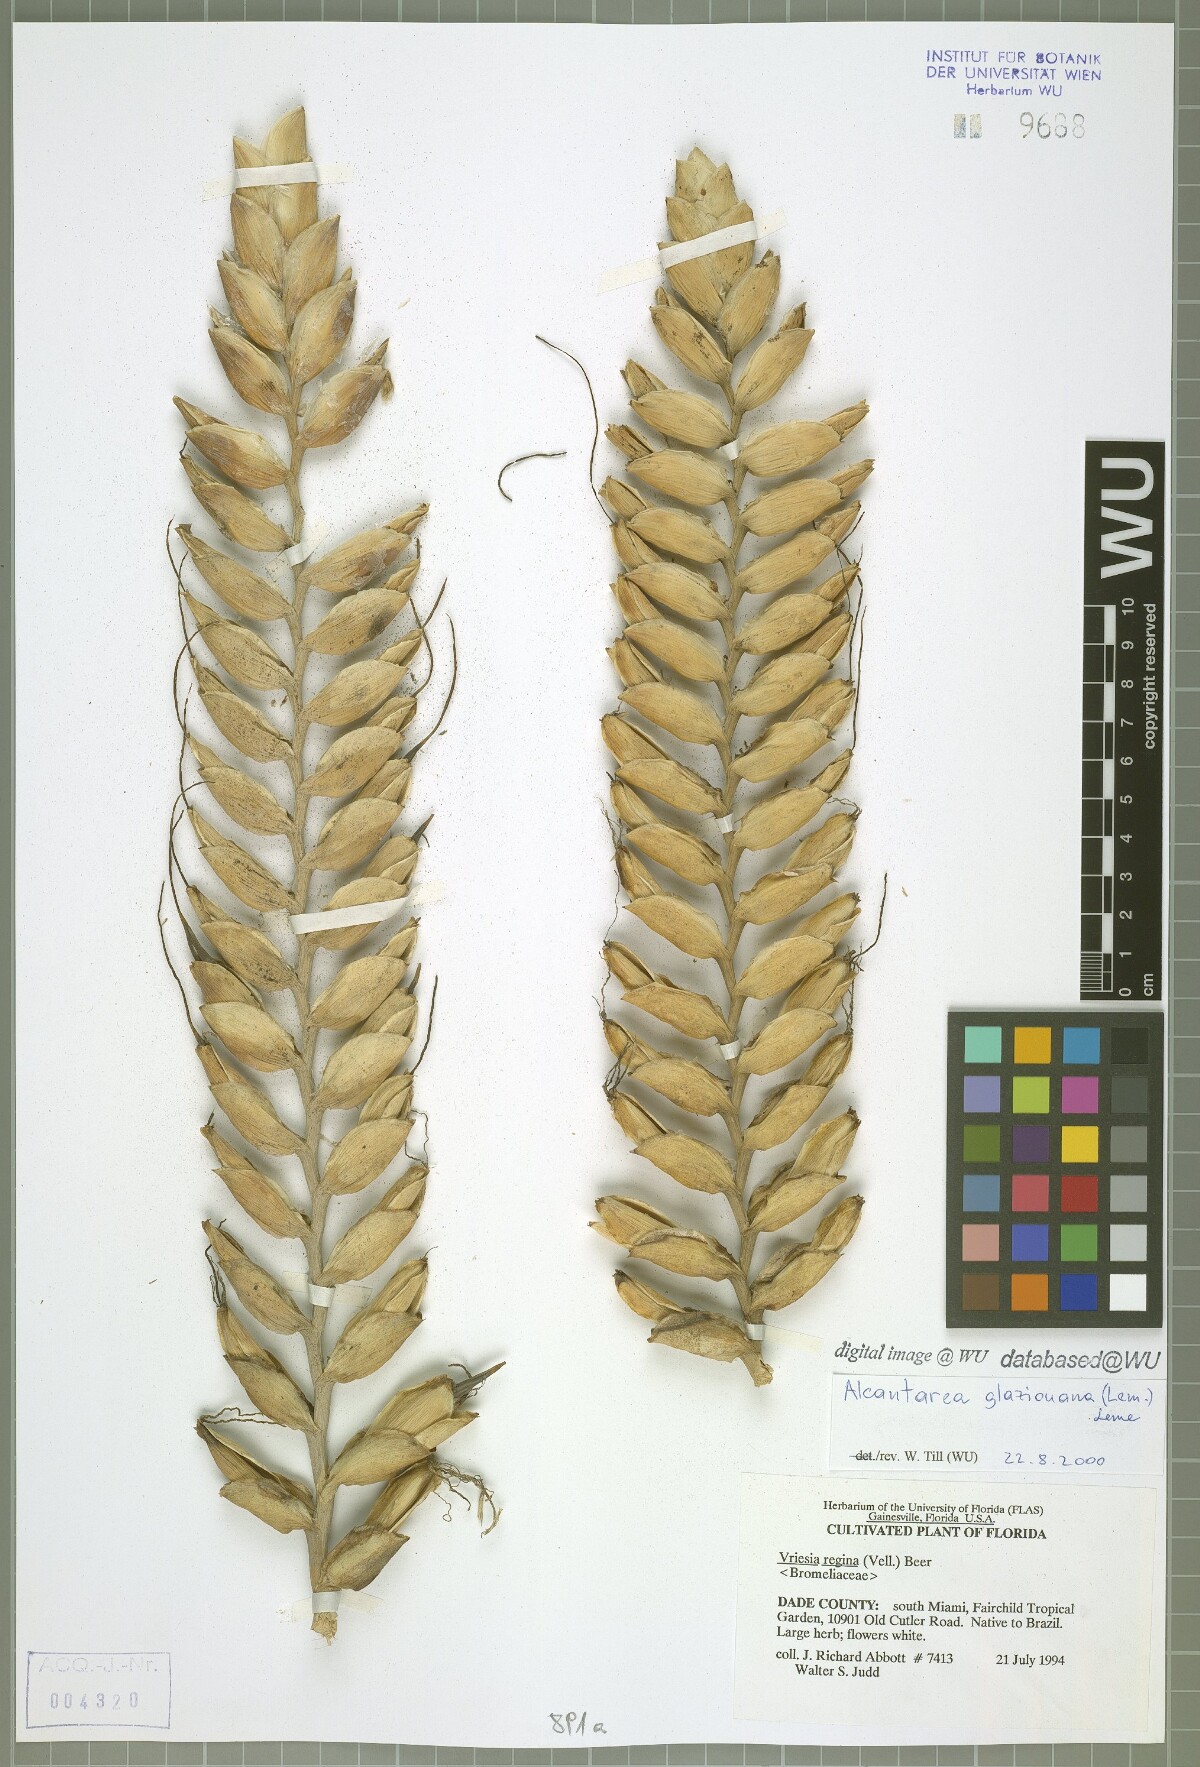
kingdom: Plantae
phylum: Tracheophyta
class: Liliopsida
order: Poales
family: Bromeliaceae
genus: Alcantarea
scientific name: Alcantarea glaziouana
